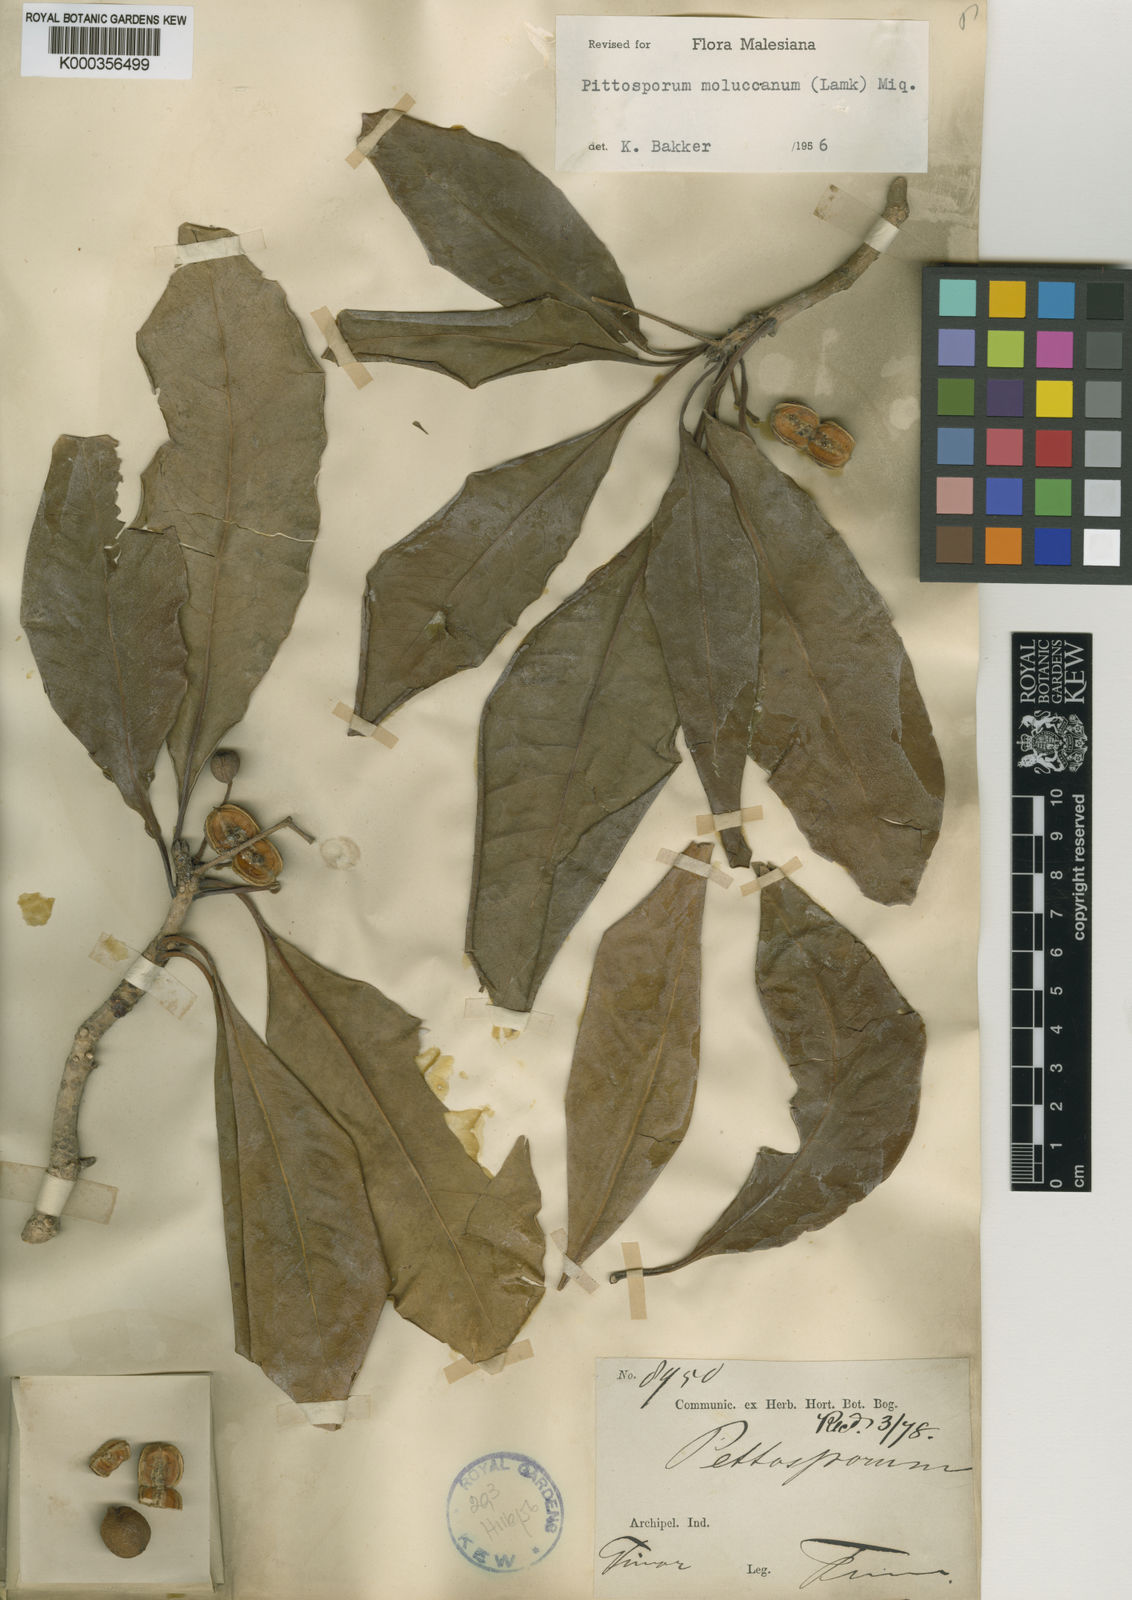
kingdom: Plantae
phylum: Tracheophyta
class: Magnoliopsida
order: Apiales
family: Pittosporaceae
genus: Pittosporum
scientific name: Pittosporum moluccanum
